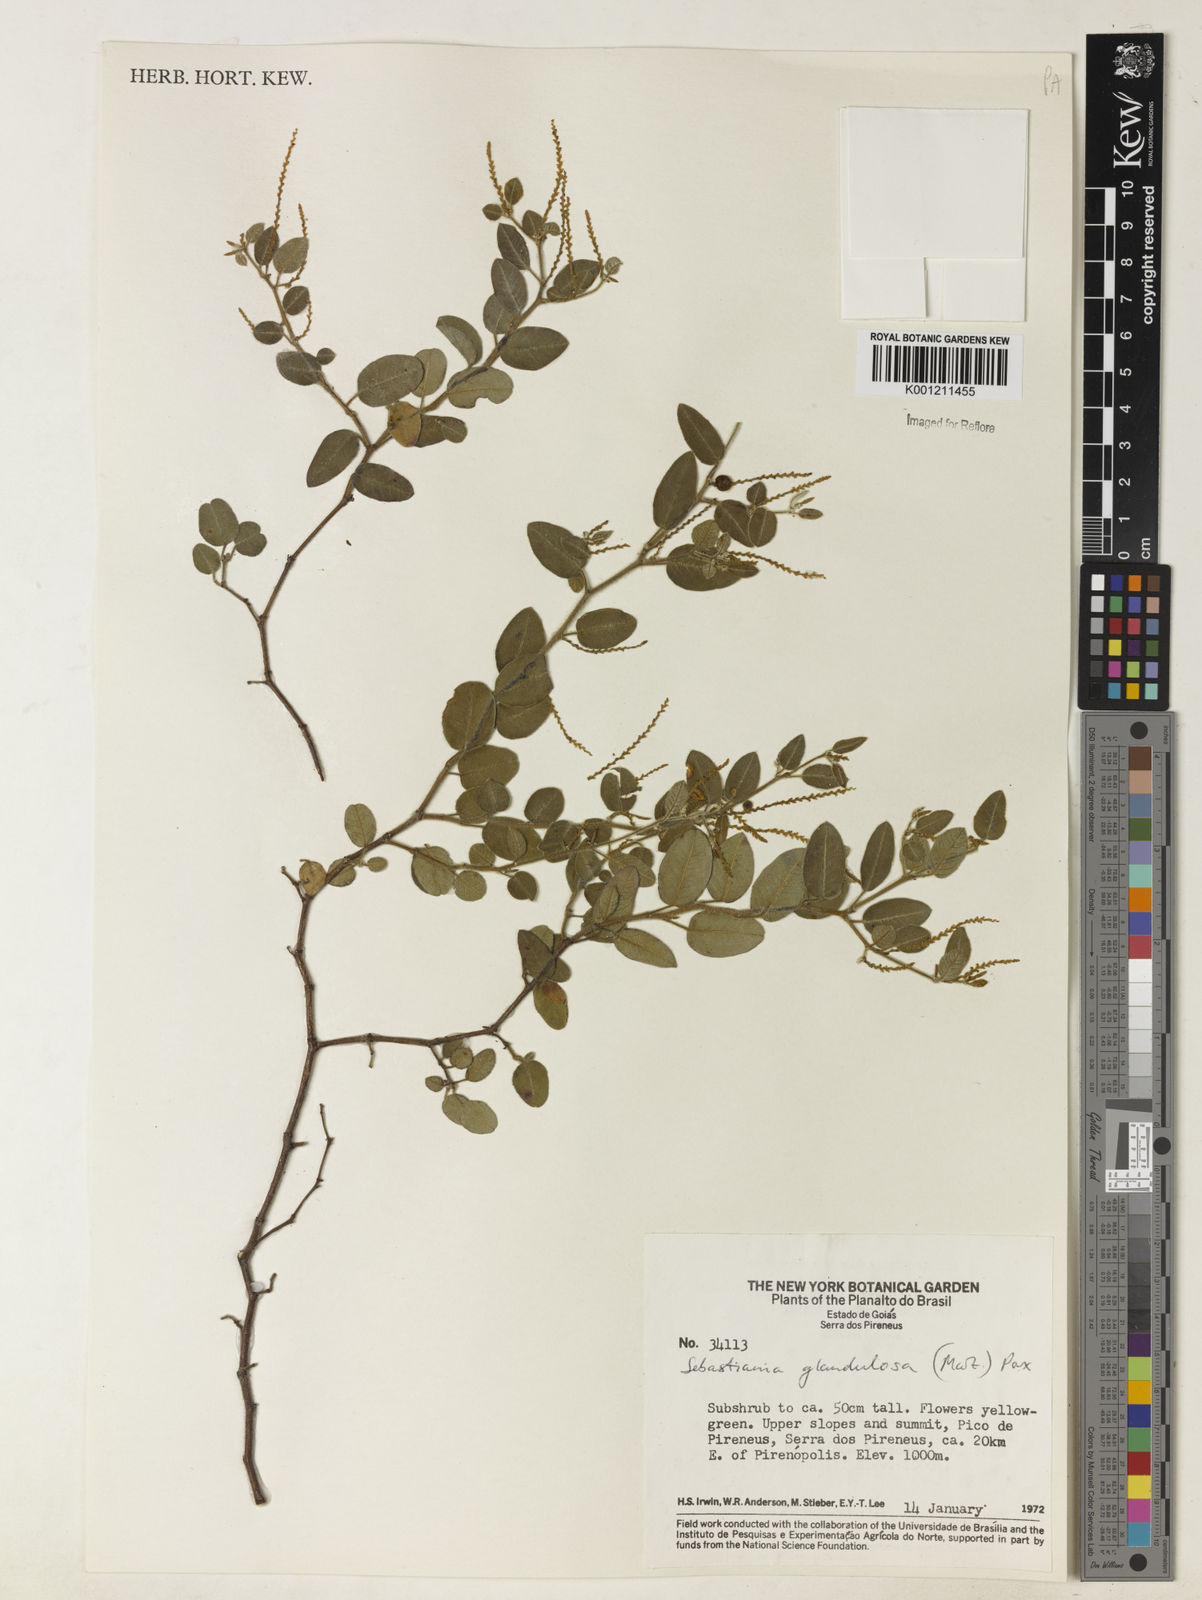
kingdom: Plantae
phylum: Tracheophyta
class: Magnoliopsida
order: Malpighiales
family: Euphorbiaceae
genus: Microstachys
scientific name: Microstachys glandulosa
